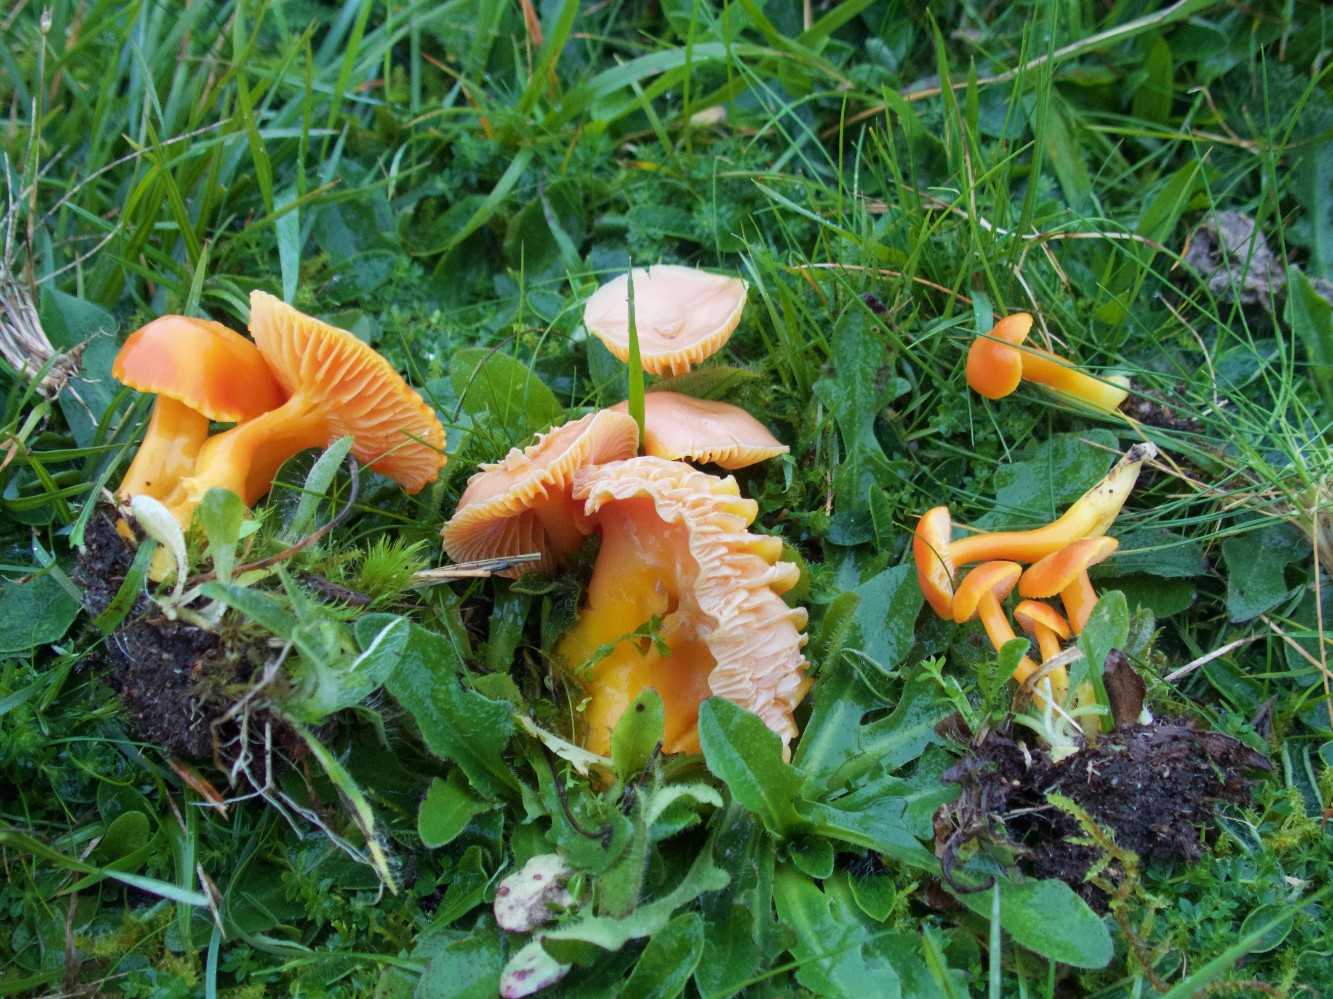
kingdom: Fungi
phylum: Basidiomycota
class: Agaricomycetes
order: Agaricales
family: Hygrophoraceae
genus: Hygrocybe
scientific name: Hygrocybe reidii
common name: honning-vokshat
